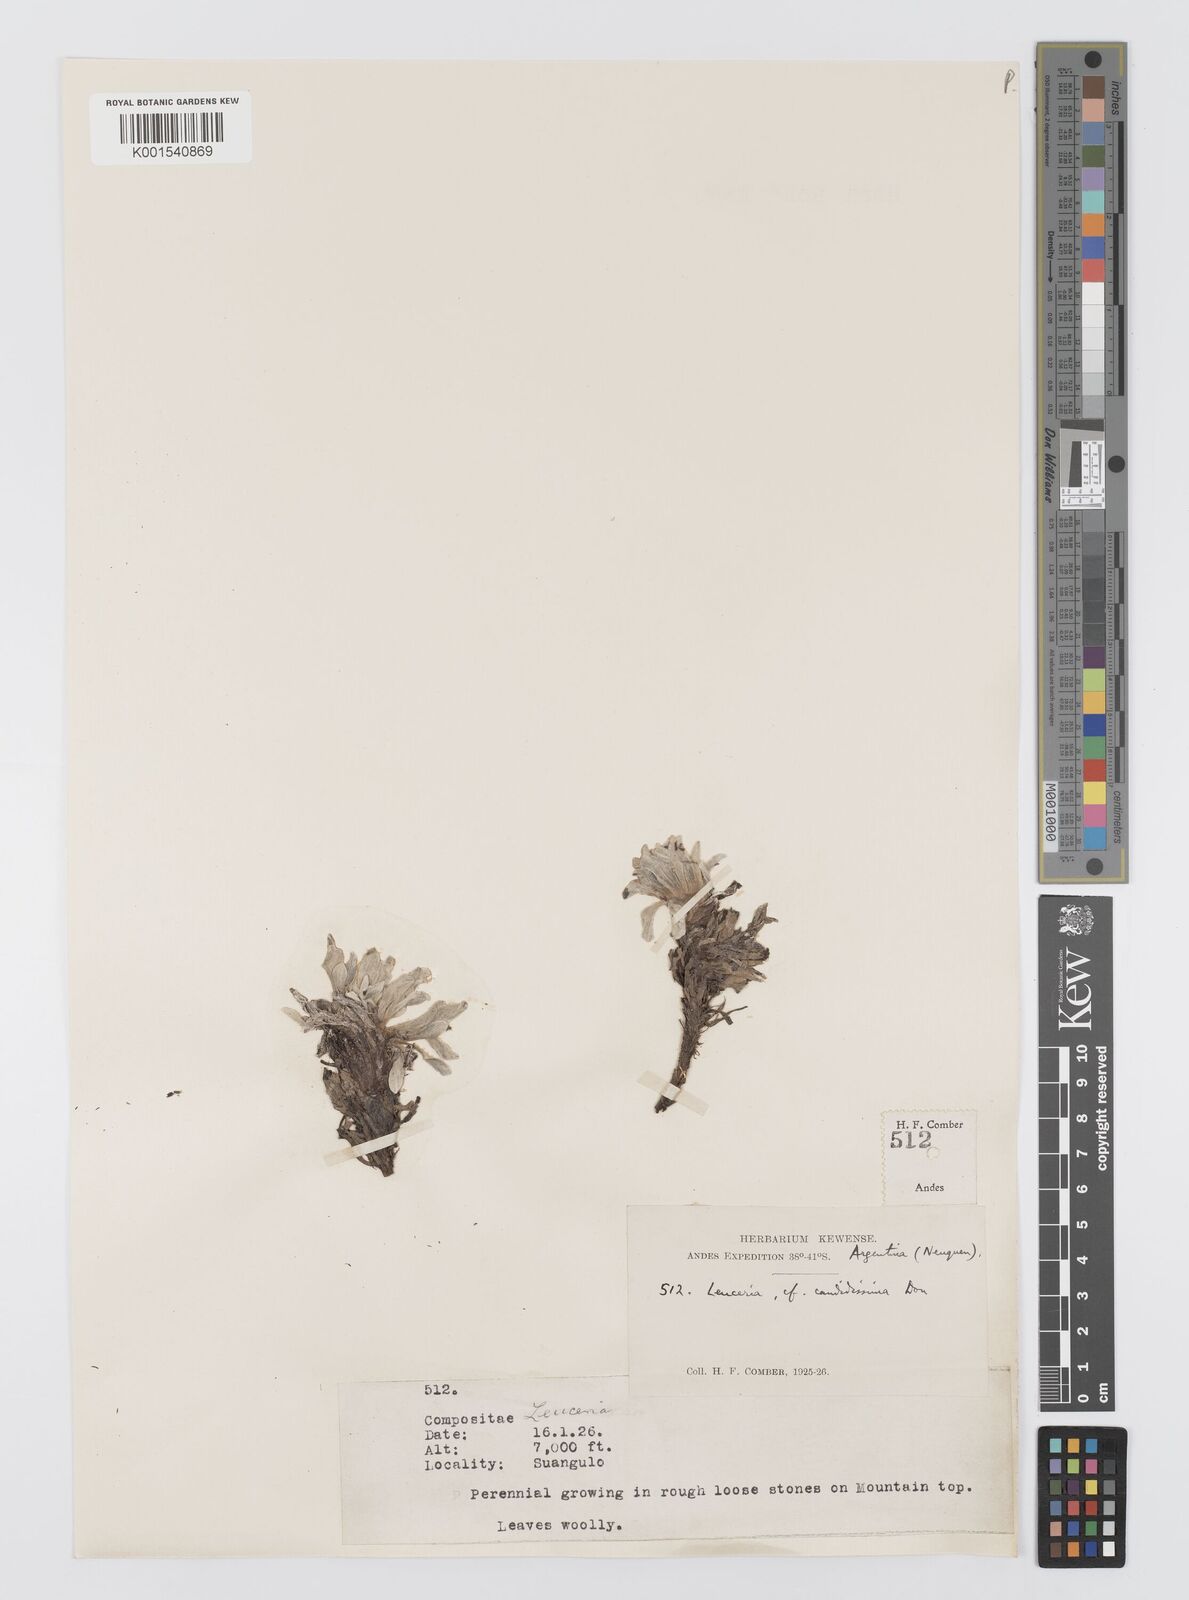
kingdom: Plantae
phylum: Tracheophyta
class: Magnoliopsida
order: Asterales
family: Asteraceae
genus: Leucheria
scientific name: Leucheria candidissima
